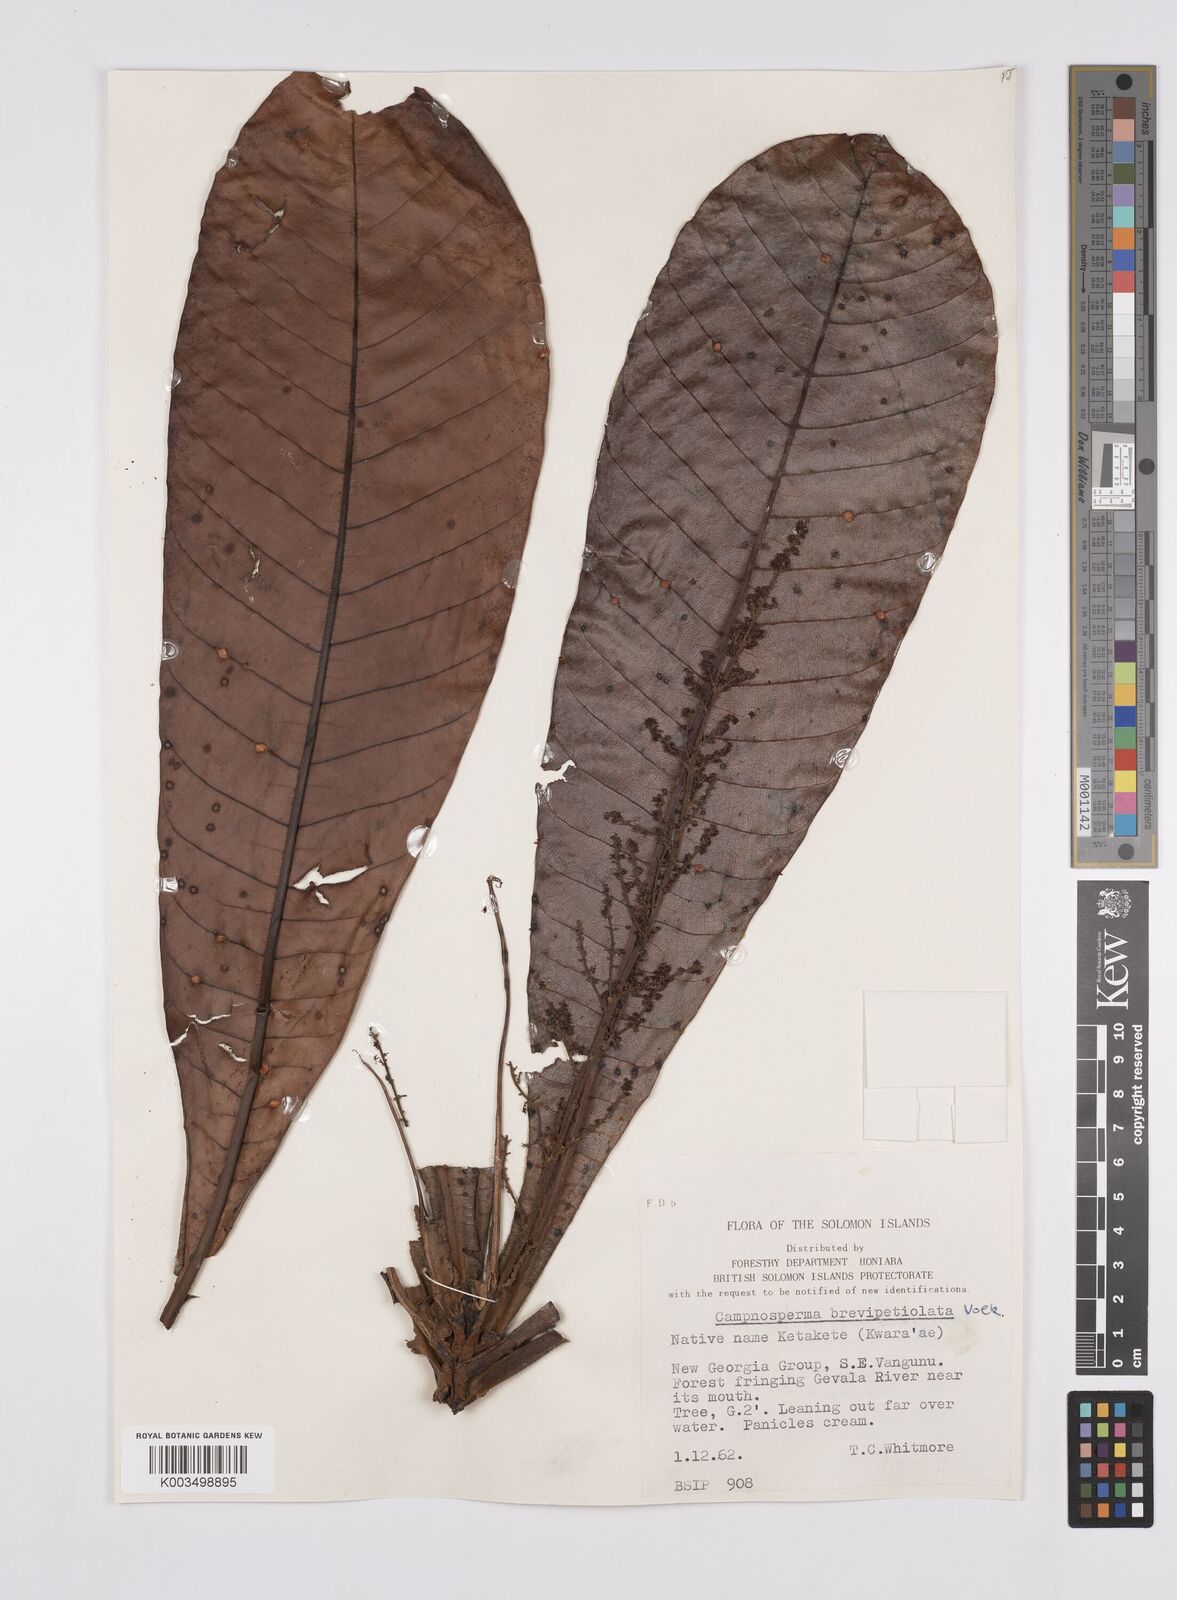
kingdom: Plantae
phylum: Tracheophyta
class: Magnoliopsida
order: Sapindales
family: Anacardiaceae
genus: Campnosperma
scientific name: Campnosperma brevipetiolatum
